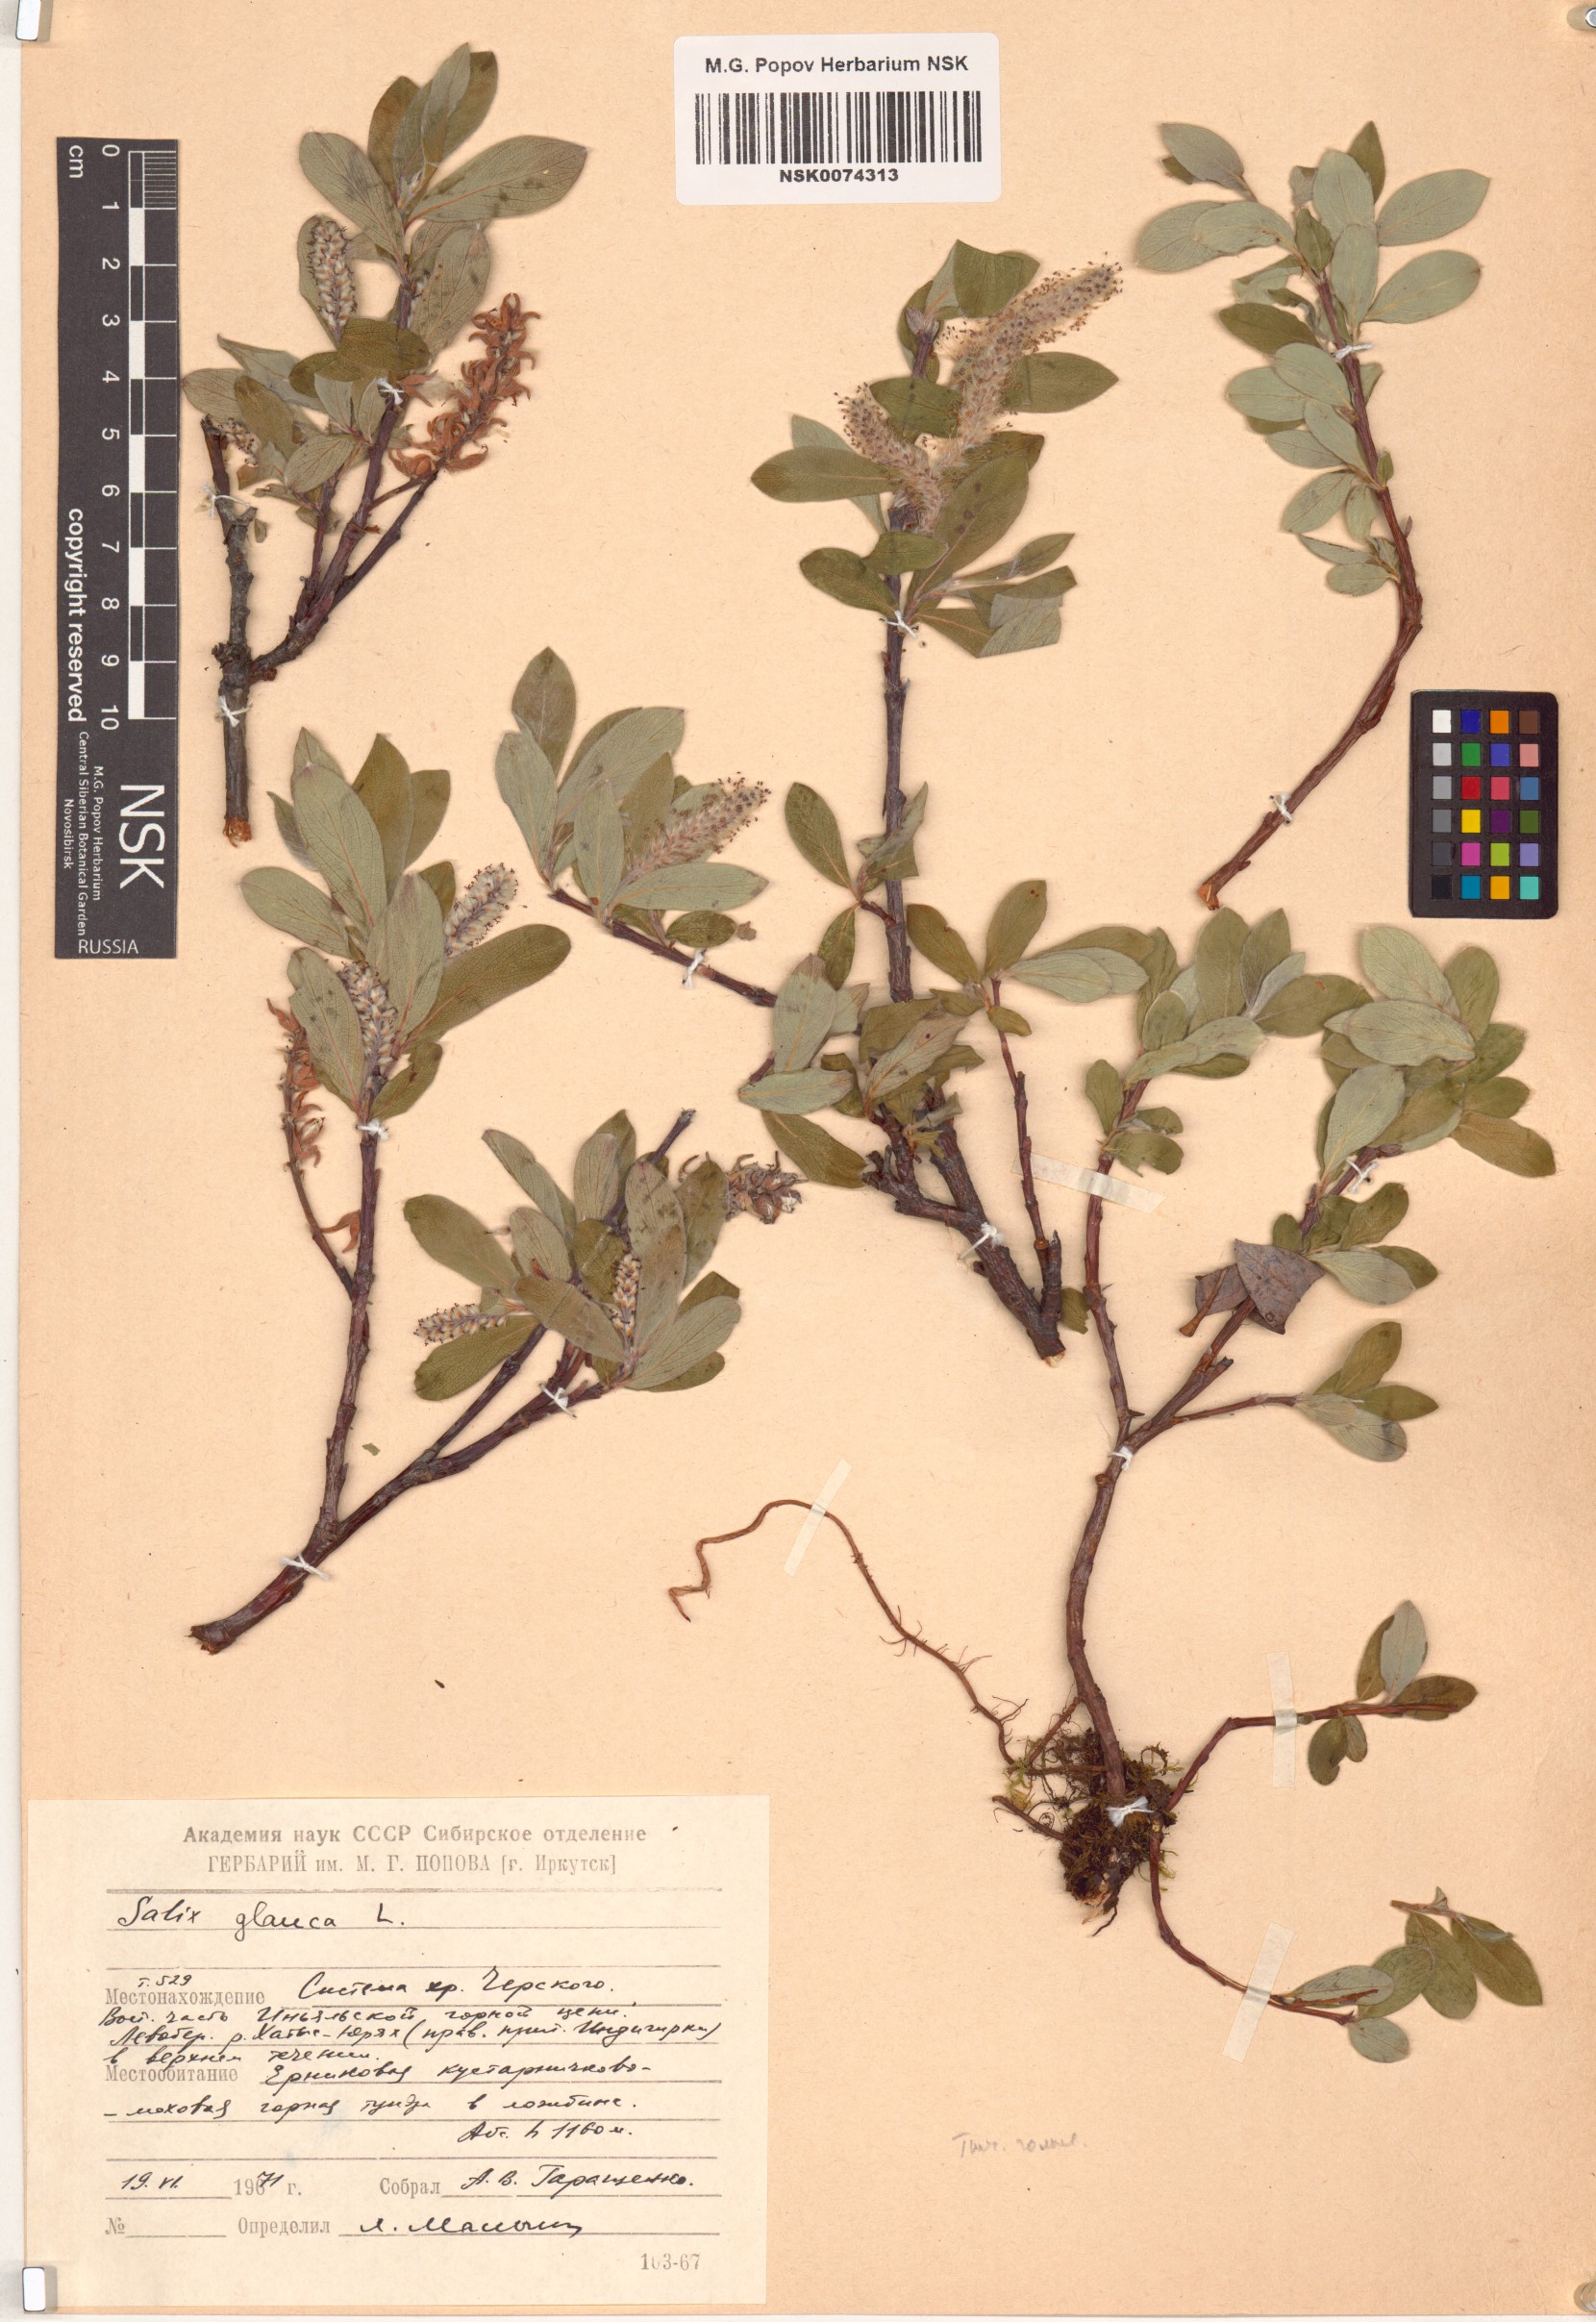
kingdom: Plantae
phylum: Tracheophyta
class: Magnoliopsida
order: Malpighiales
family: Salicaceae
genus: Salix
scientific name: Salix glauca
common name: Glaucous willow
